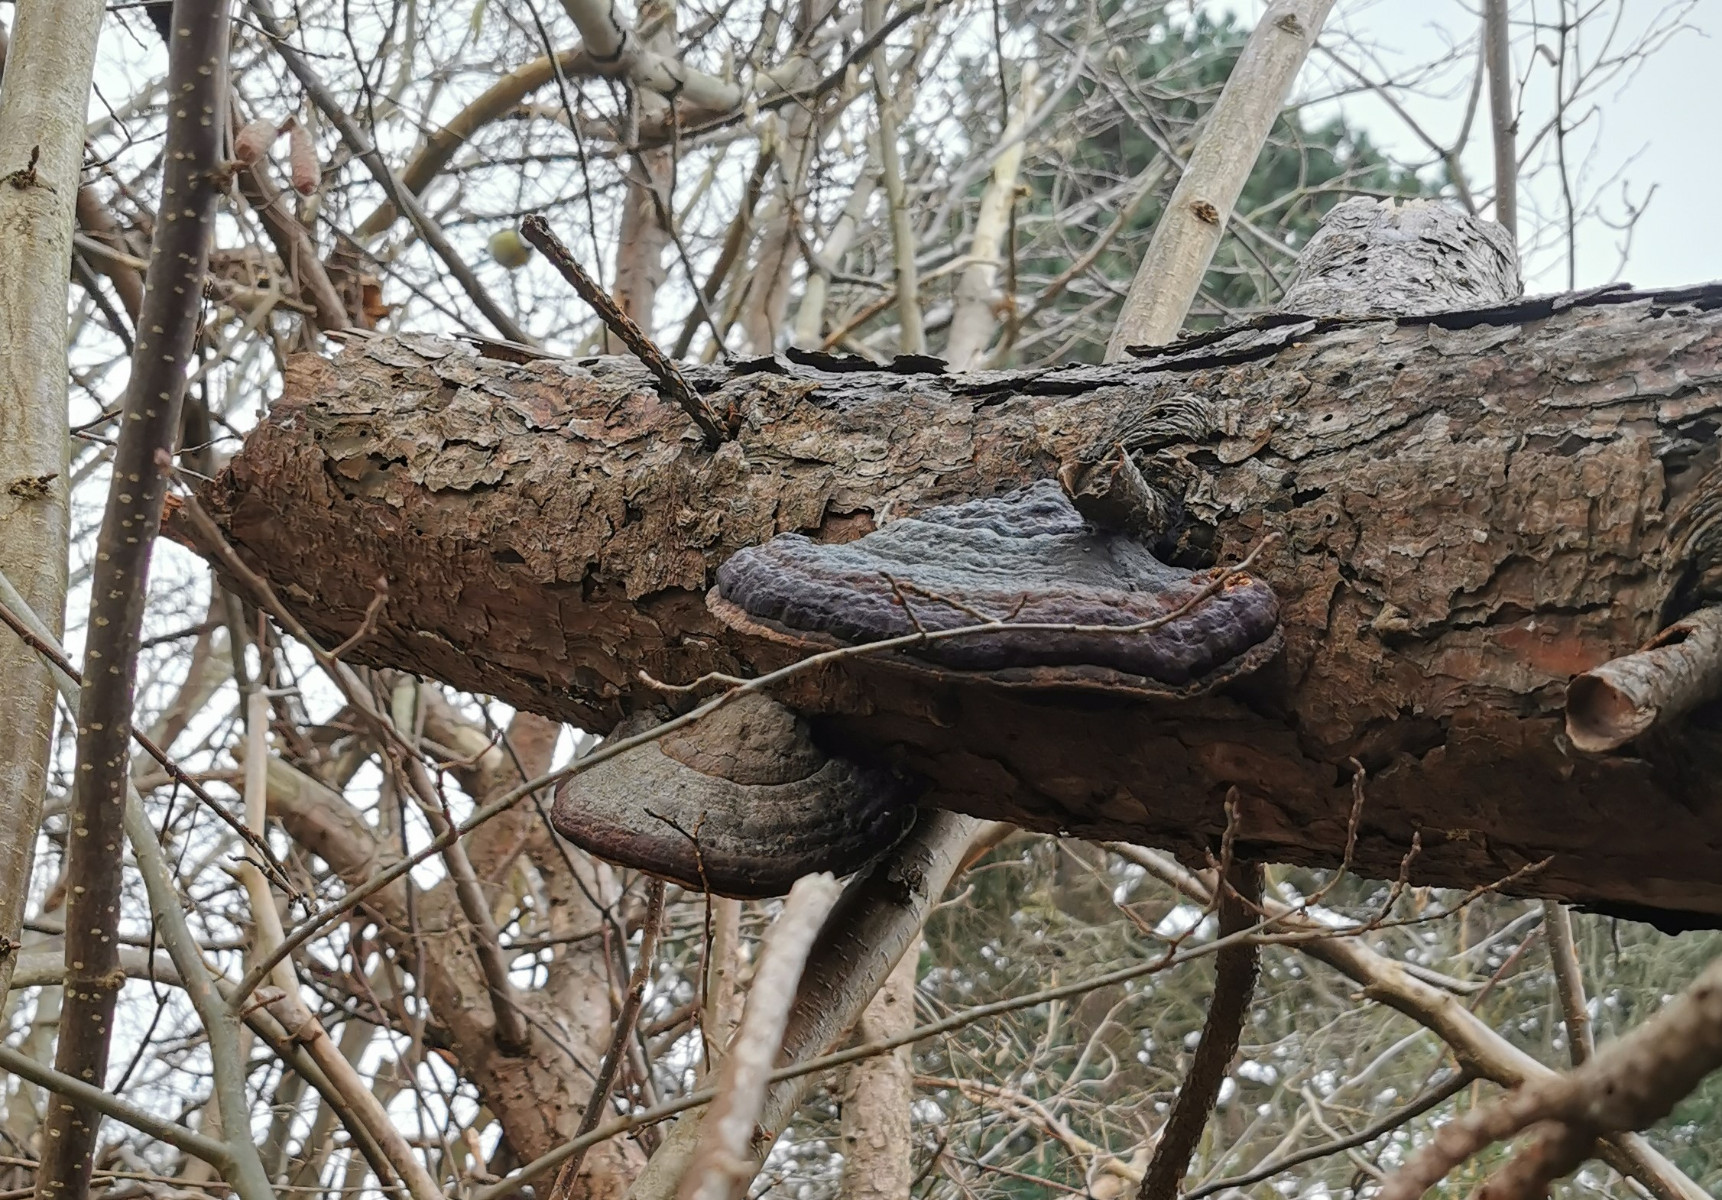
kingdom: Fungi
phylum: Basidiomycota
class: Agaricomycetes
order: Polyporales
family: Fomitopsidaceae
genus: Fomitopsis
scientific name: Fomitopsis pinicola
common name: randbæltet hovporesvamp
